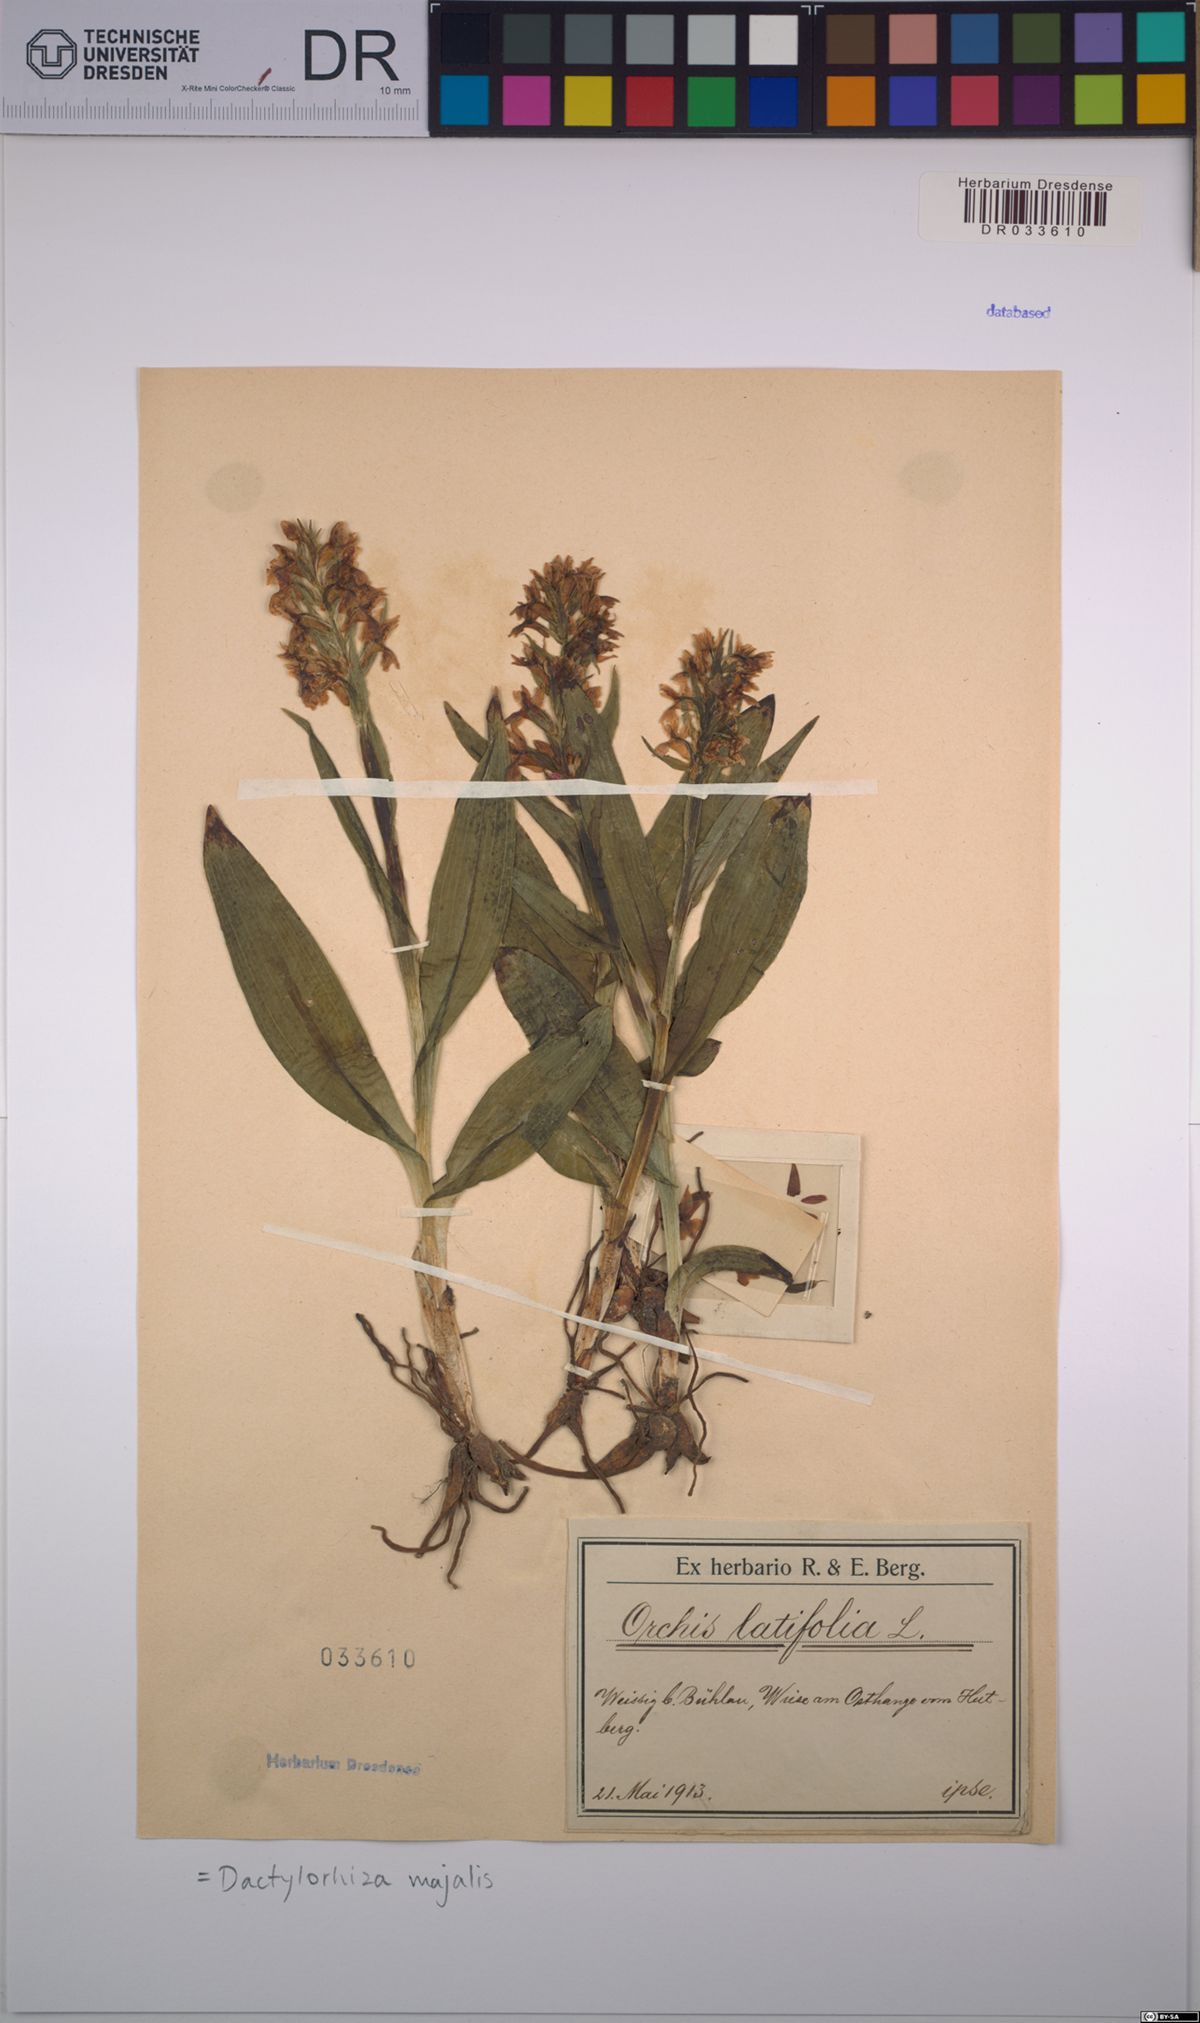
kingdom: Plantae
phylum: Tracheophyta
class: Liliopsida
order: Asparagales
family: Orchidaceae
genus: Dactylorhiza
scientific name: Dactylorhiza majalis
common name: Marsh orchid
